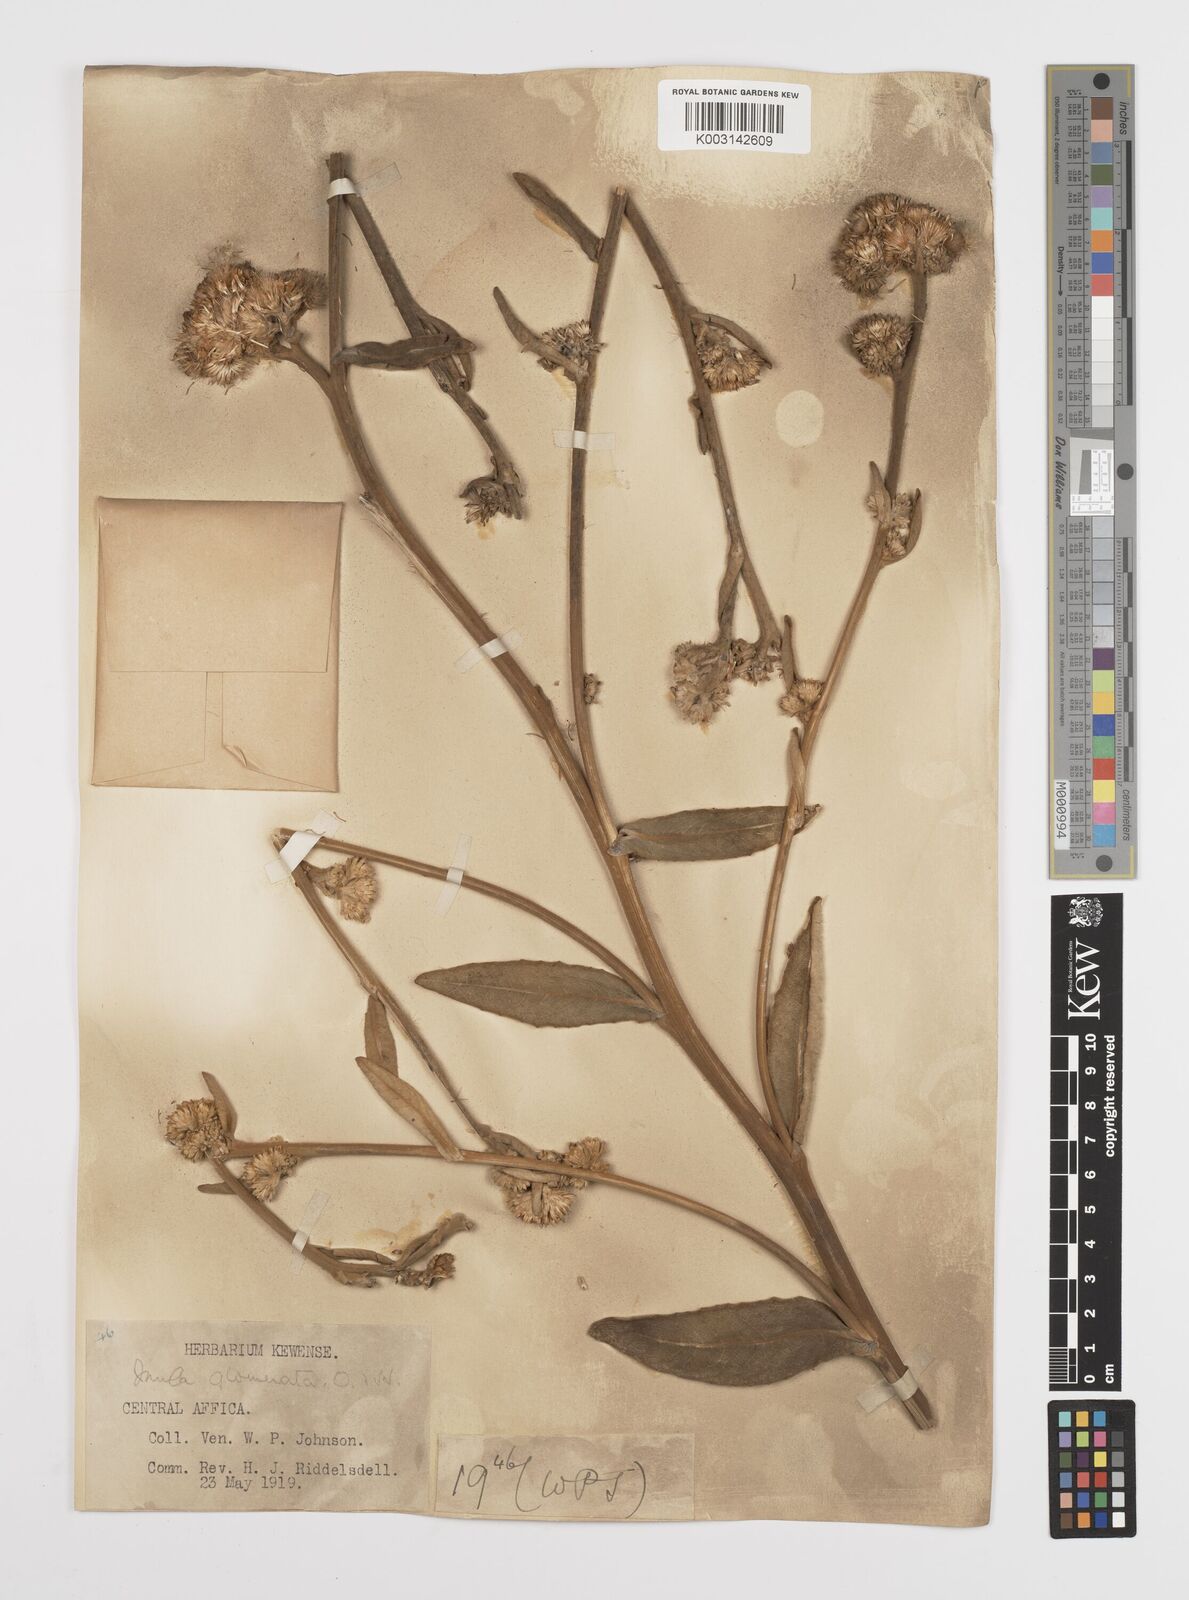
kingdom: Plantae
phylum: Tracheophyta
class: Magnoliopsida
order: Asterales
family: Asteraceae
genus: Inula
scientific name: Inula glomerata
